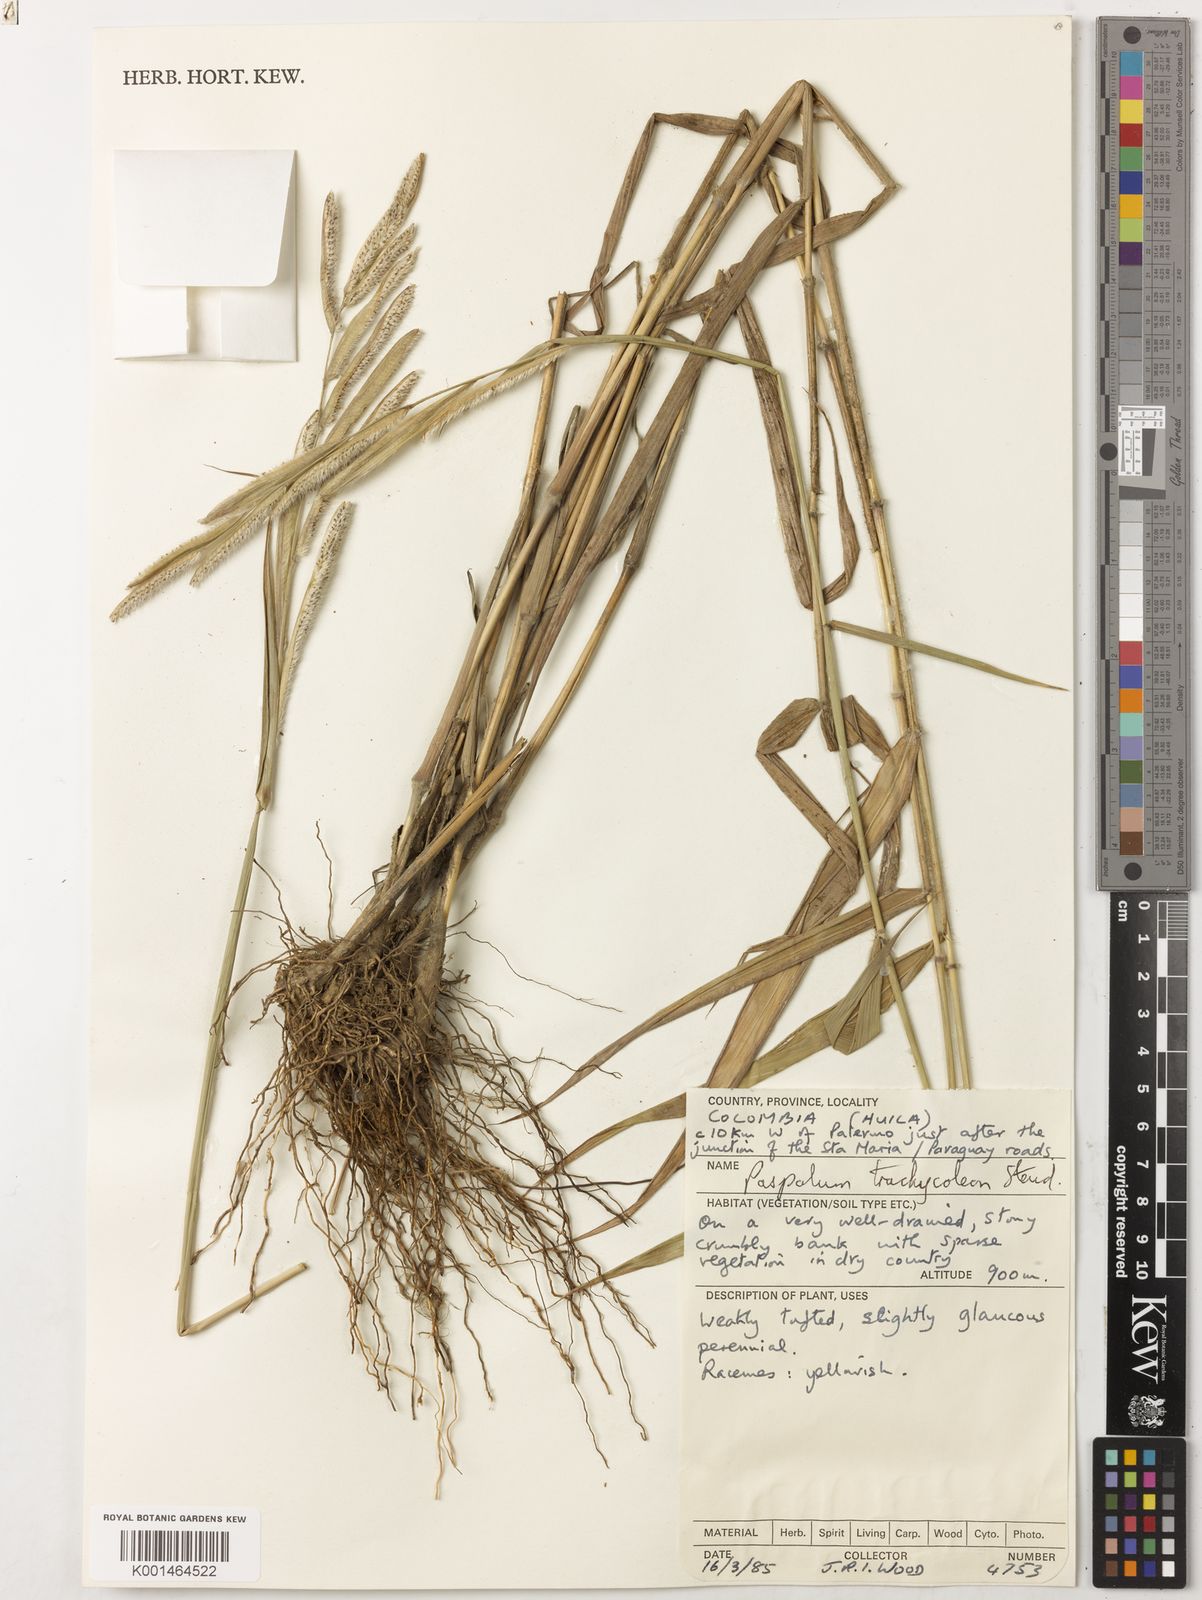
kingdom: Plantae
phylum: Tracheophyta
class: Liliopsida
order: Poales
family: Poaceae
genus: Paspalum
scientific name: Paspalum
